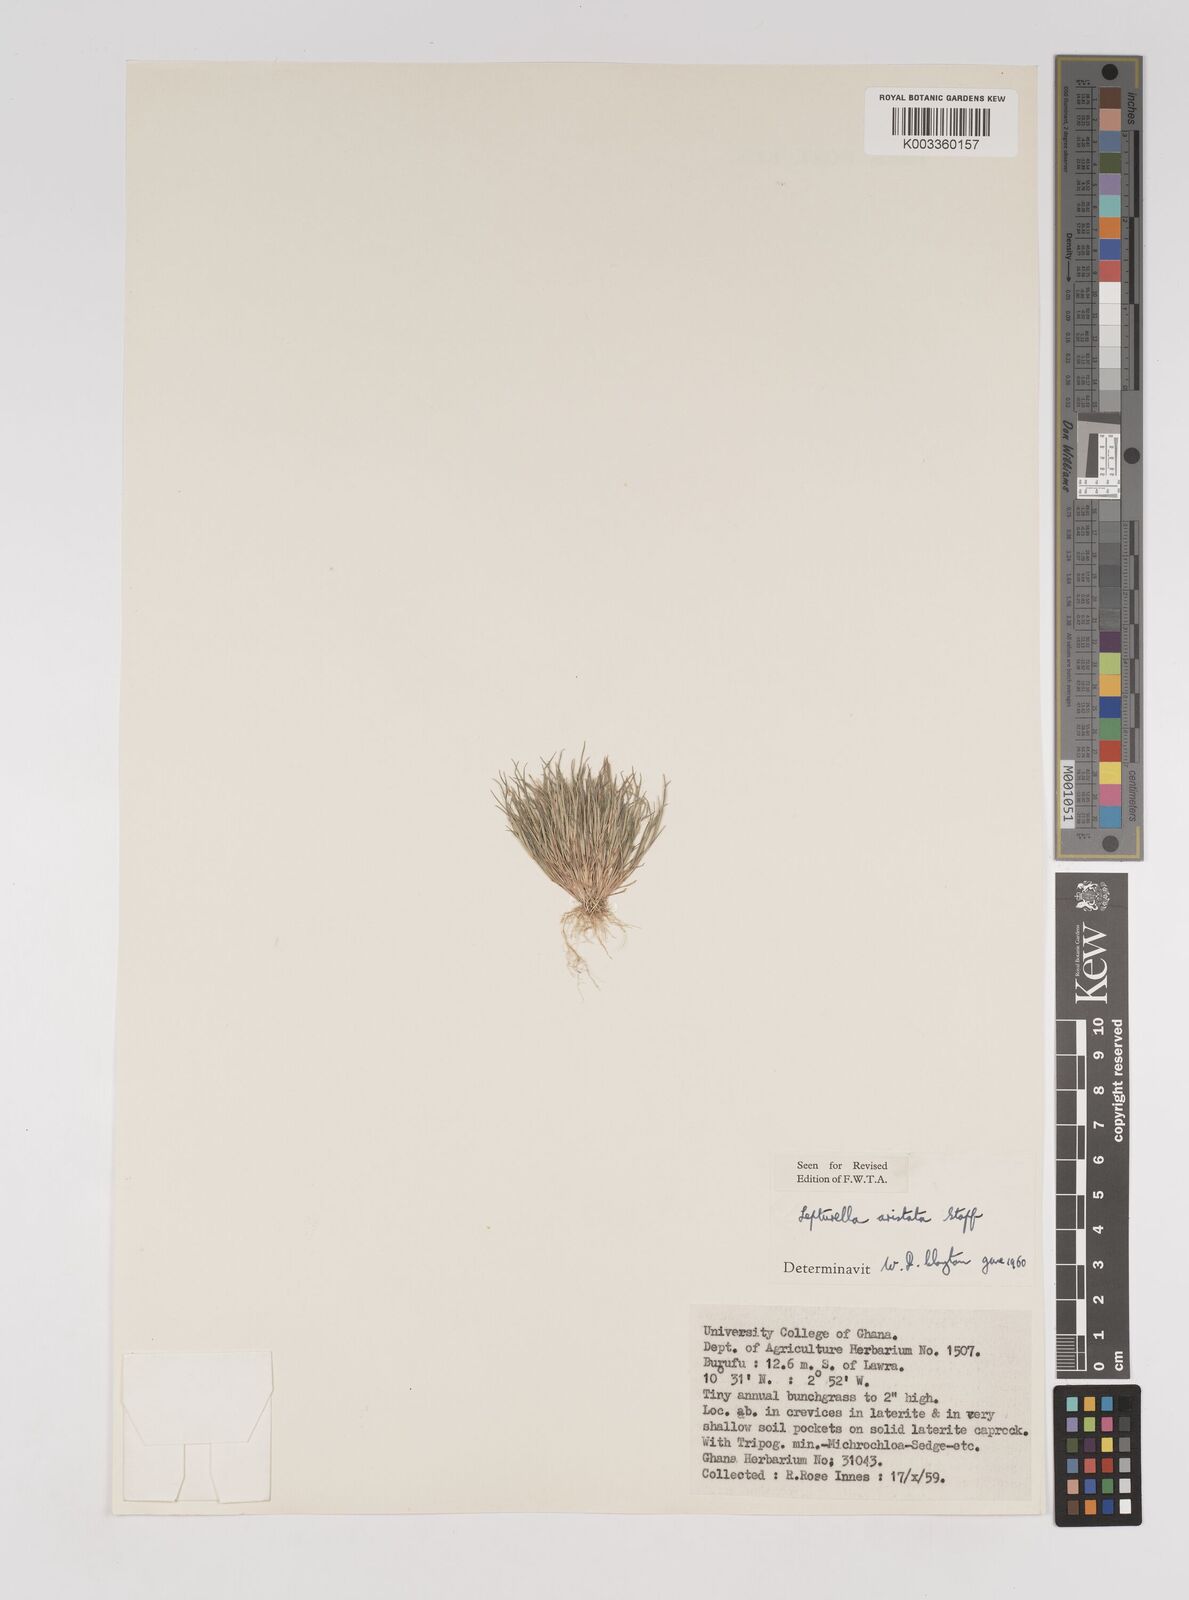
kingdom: Plantae
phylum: Tracheophyta
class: Liliopsida
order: Poales
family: Poaceae
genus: Oropetium
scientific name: Oropetium aristatum
